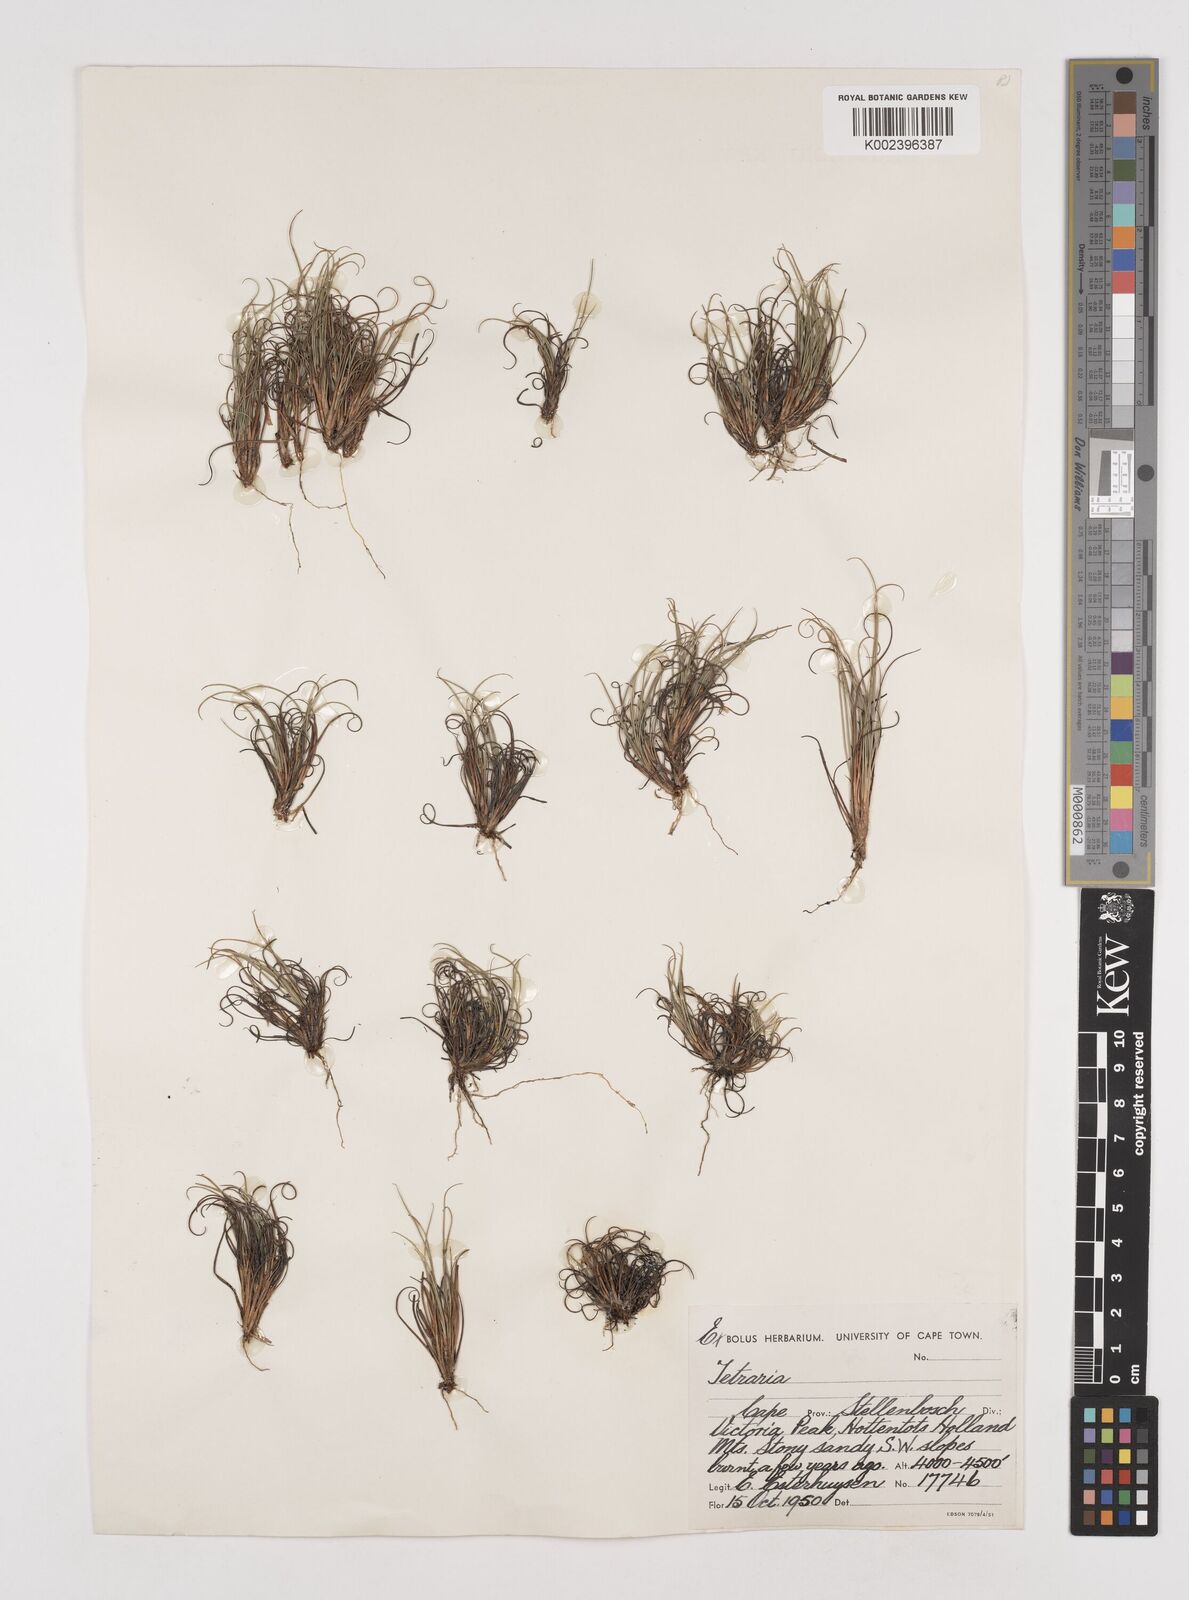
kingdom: Plantae
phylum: Tracheophyta
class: Liliopsida
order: Poales
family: Cyperaceae
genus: Tetraria
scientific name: Tetraria
